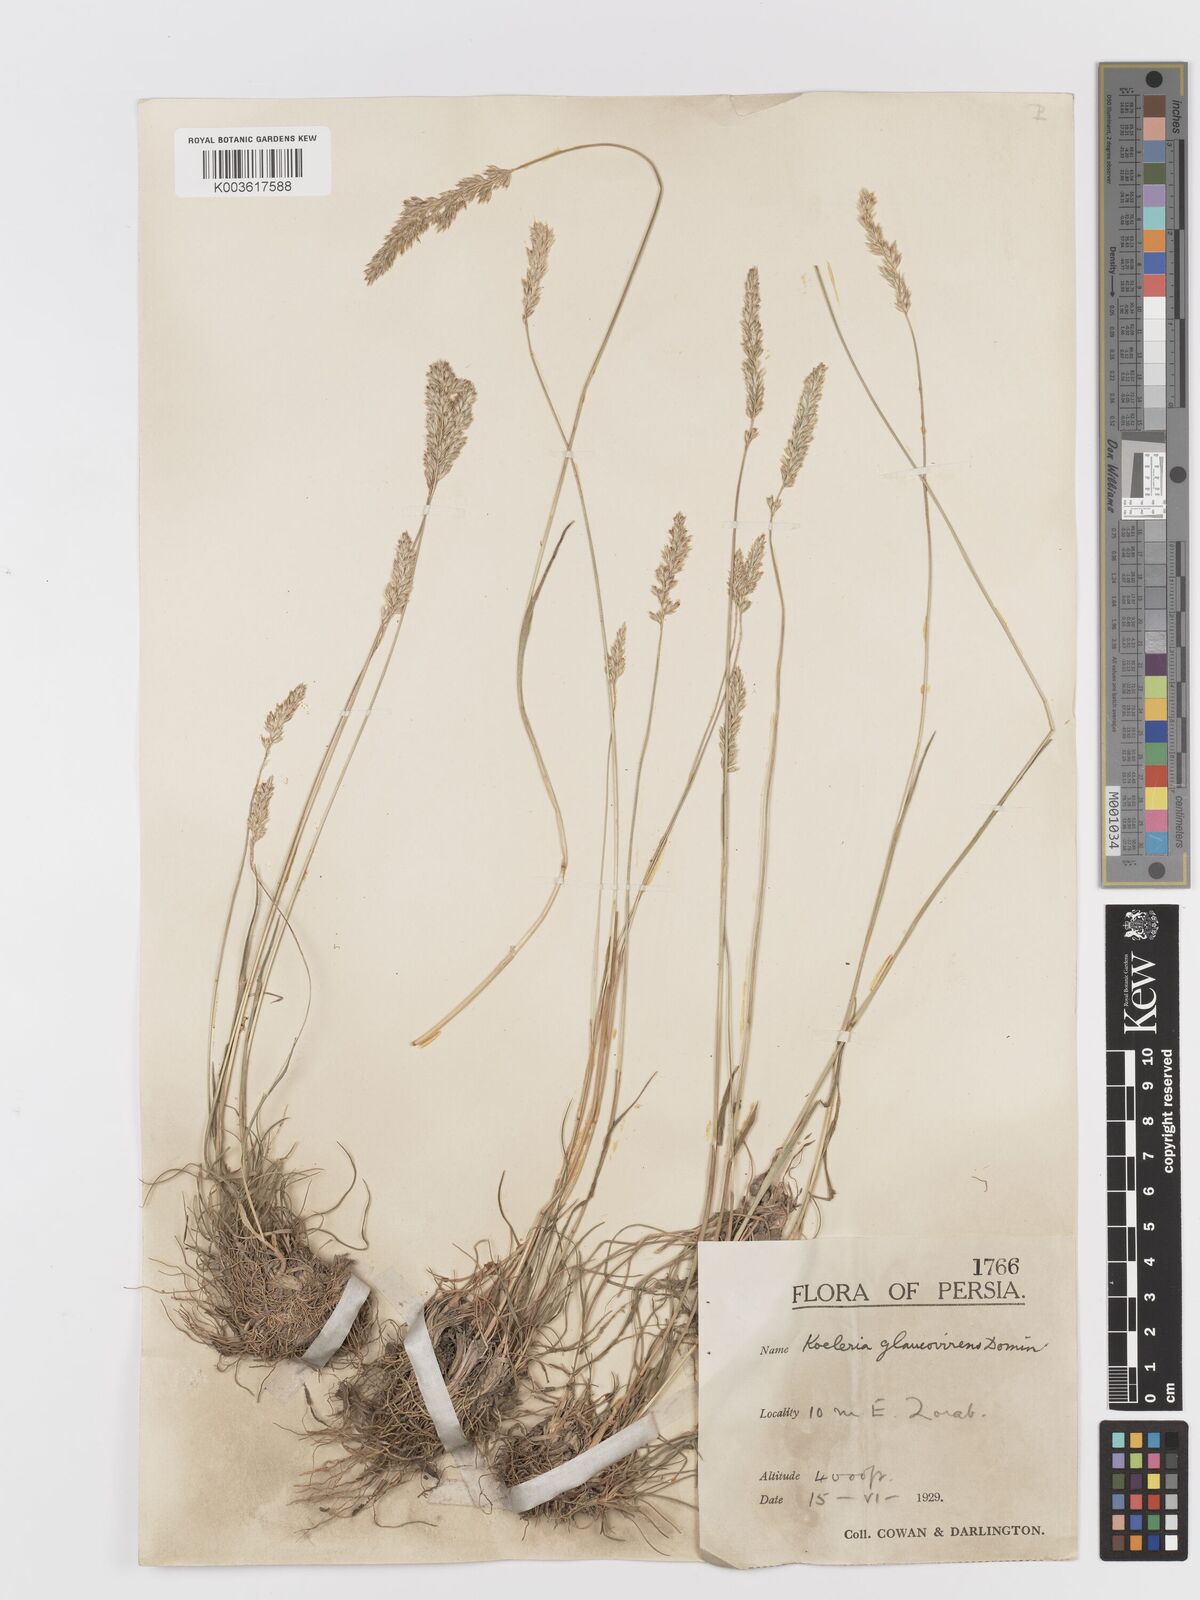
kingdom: Plantae
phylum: Tracheophyta
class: Liliopsida
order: Poales
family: Poaceae
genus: Koeleria
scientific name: Koeleria macrantha
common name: Crested hair-grass
